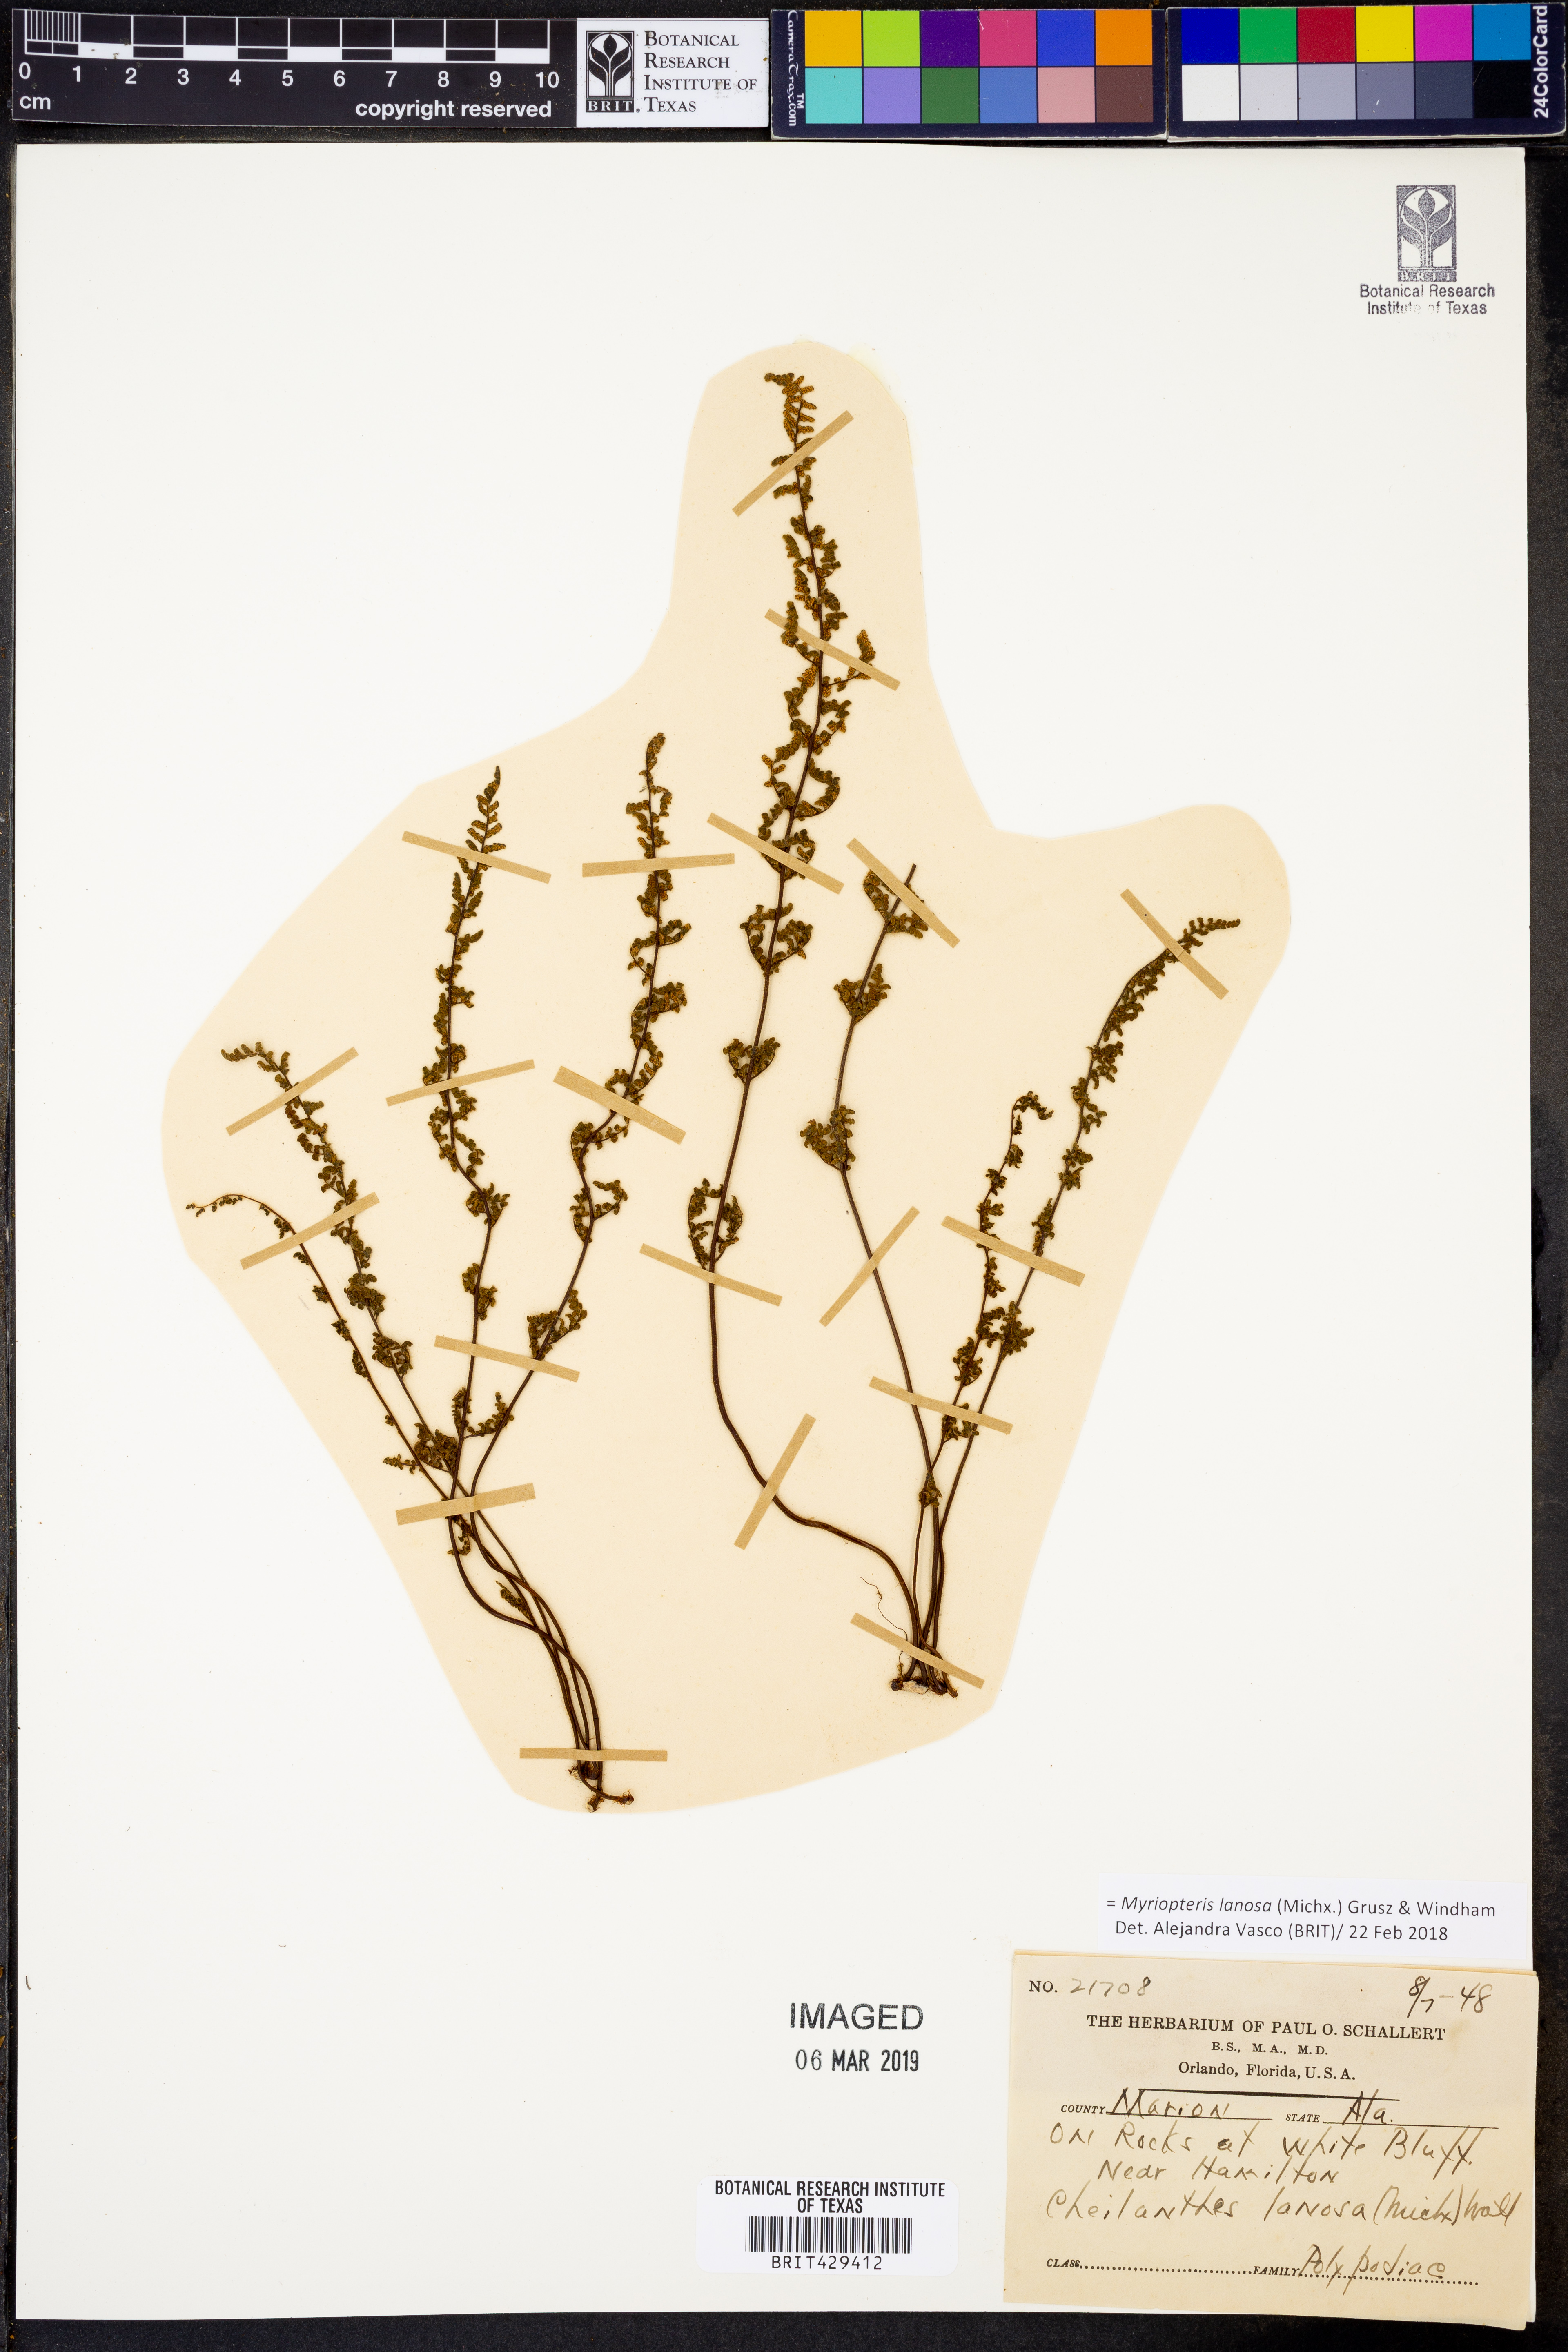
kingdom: Plantae
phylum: Tracheophyta
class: Polypodiopsida
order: Polypodiales
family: Pteridaceae
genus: Myriopteris
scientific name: Myriopteris lanosa
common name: Hairy lip fern
